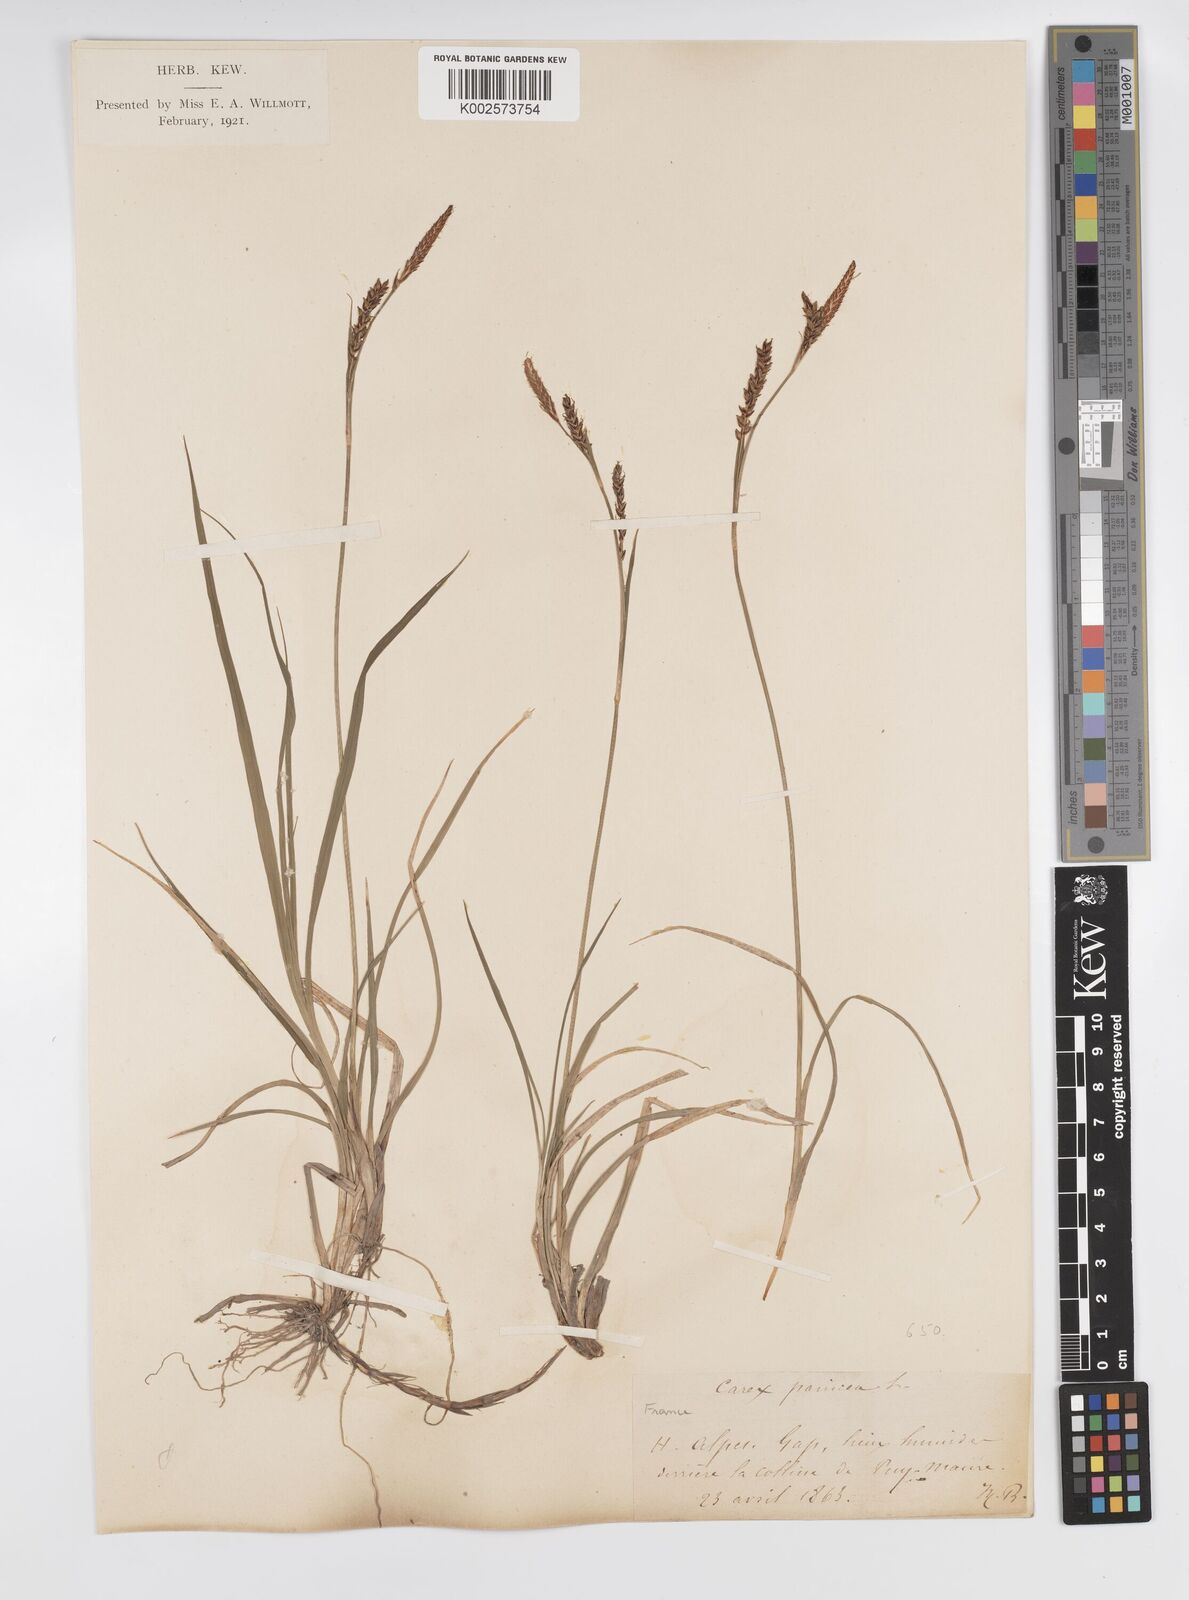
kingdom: Plantae
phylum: Tracheophyta
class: Liliopsida
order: Poales
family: Cyperaceae
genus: Carex
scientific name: Carex panicea
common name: Carnation sedge
